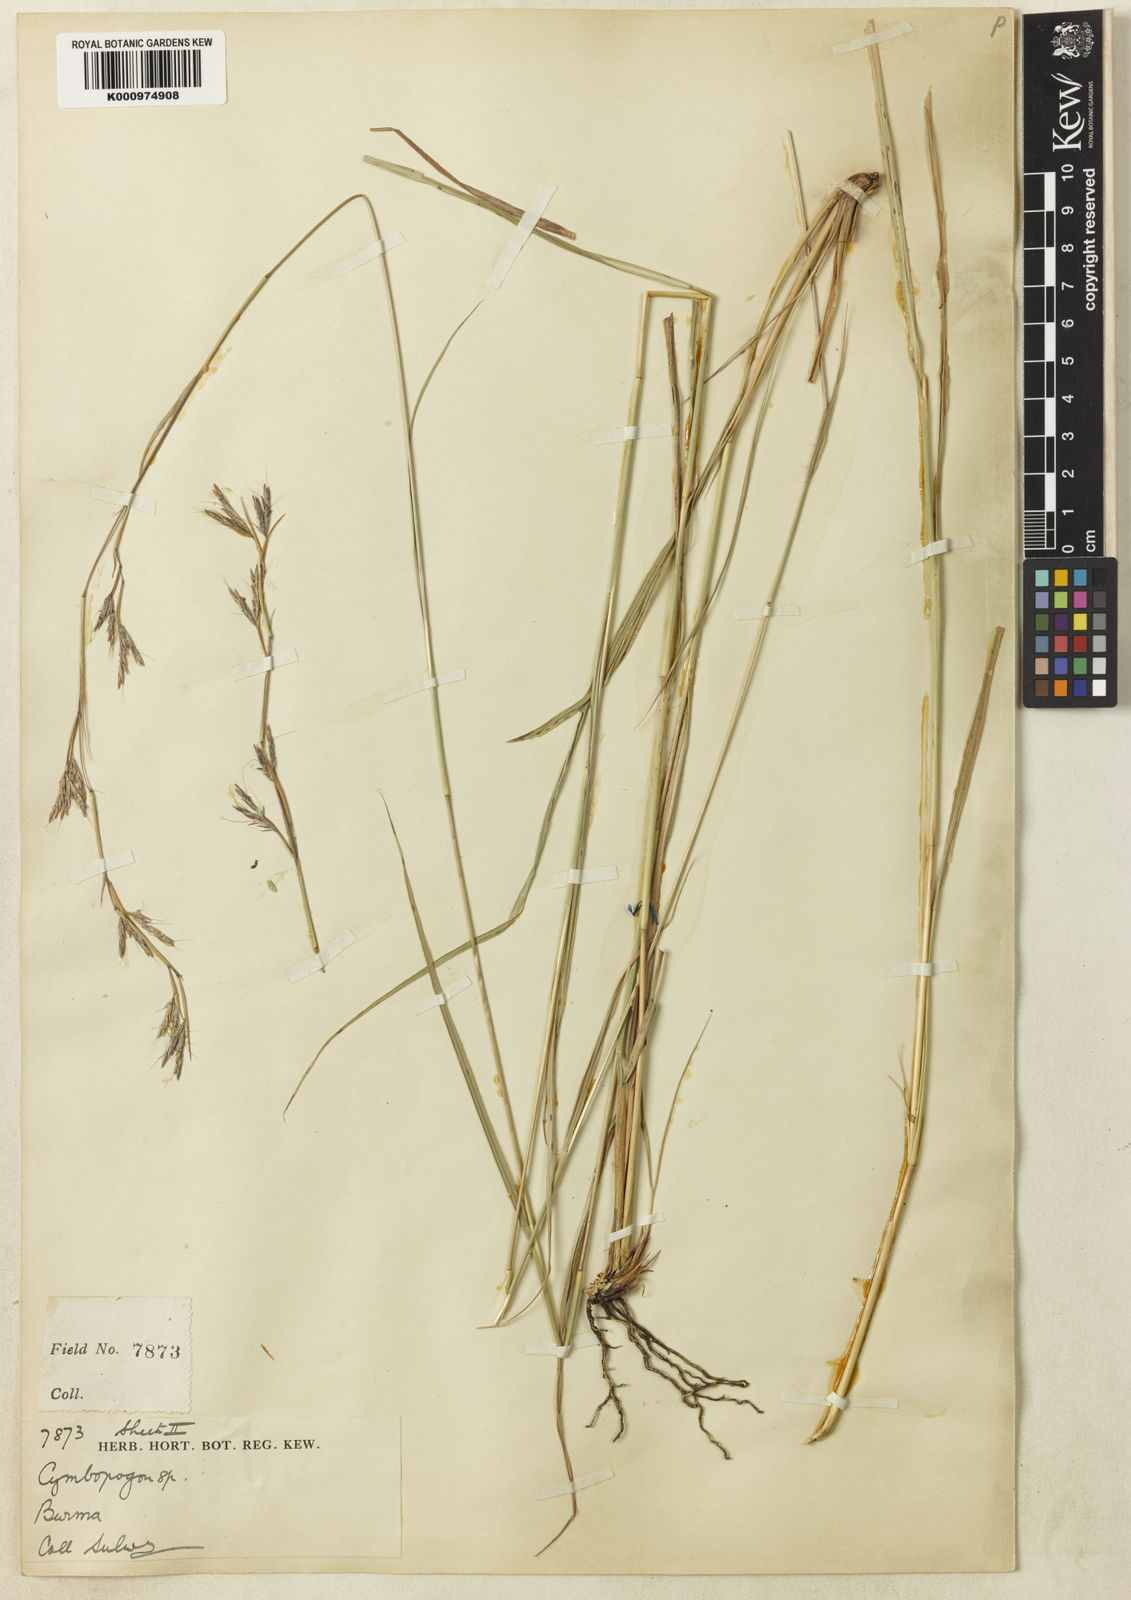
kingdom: Plantae
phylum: Tracheophyta
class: Liliopsida
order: Poales
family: Poaceae
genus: Cymbopogon
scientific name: Cymbopogon gidarba
